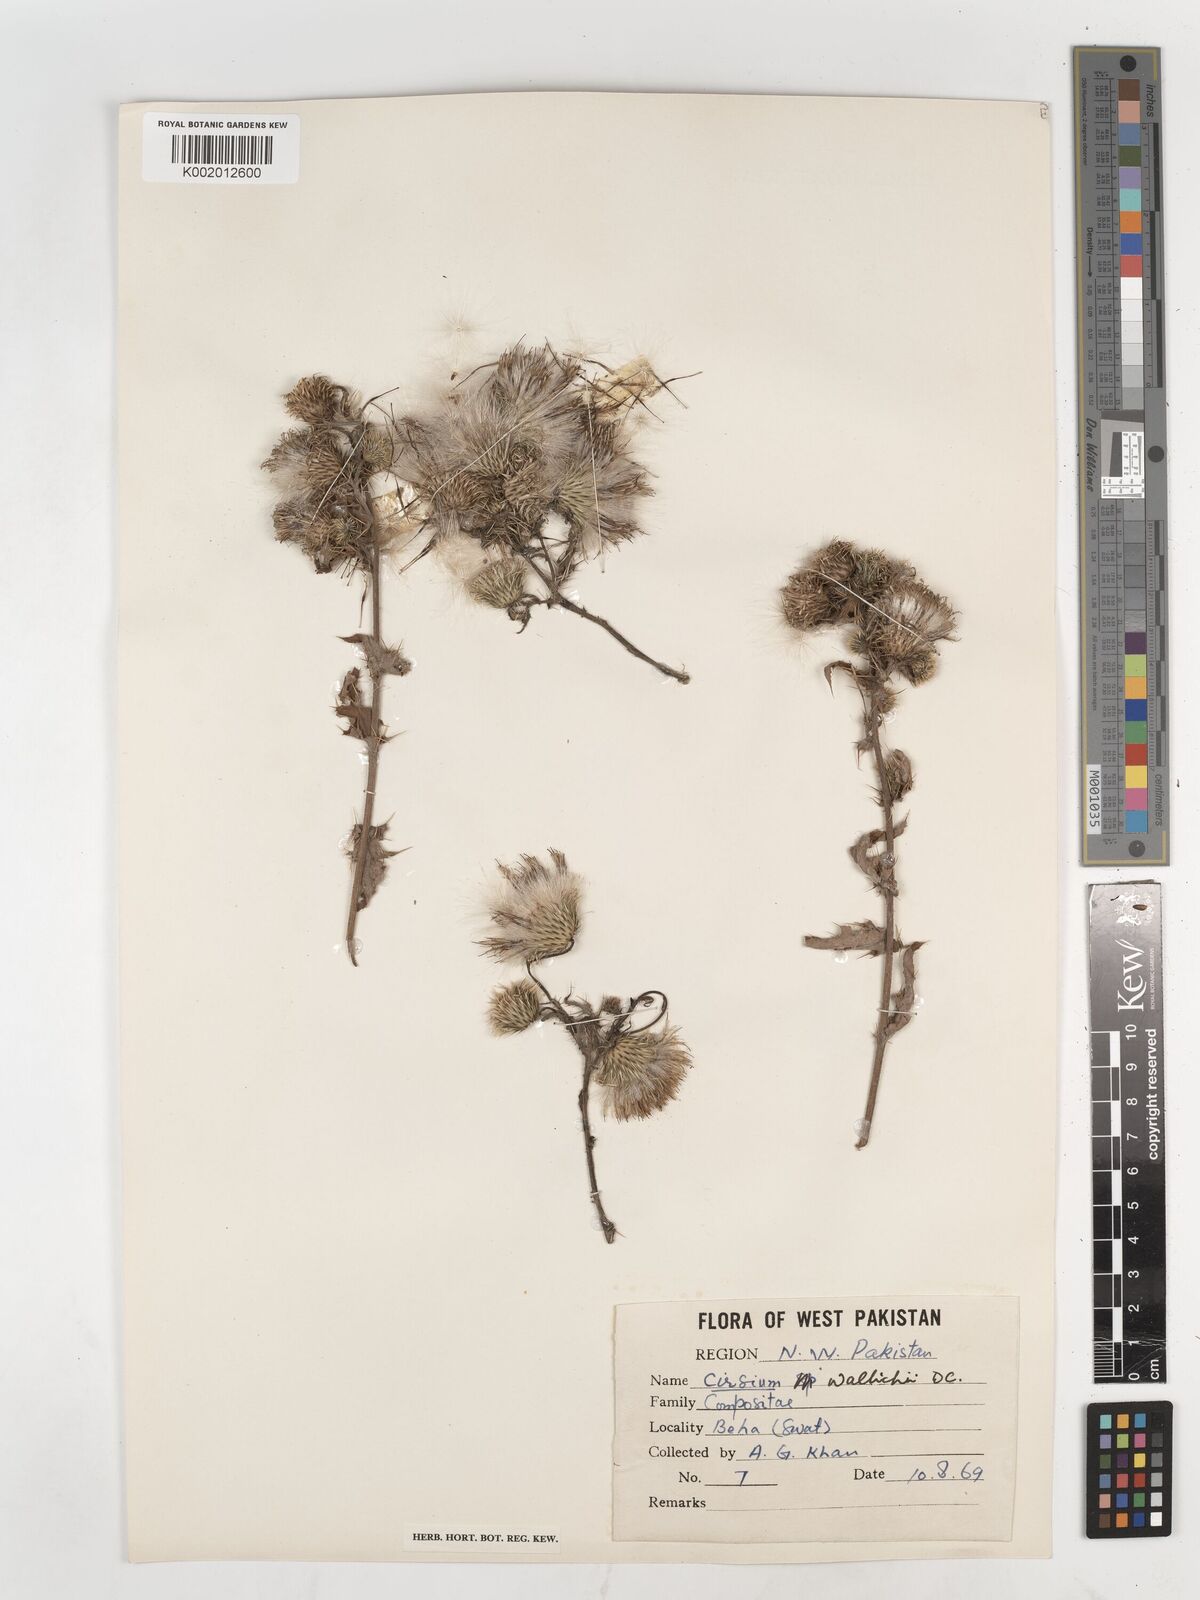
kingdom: Plantae
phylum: Tracheophyta
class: Magnoliopsida
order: Asterales
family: Asteraceae
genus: Cirsium
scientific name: Cirsium wallichii
